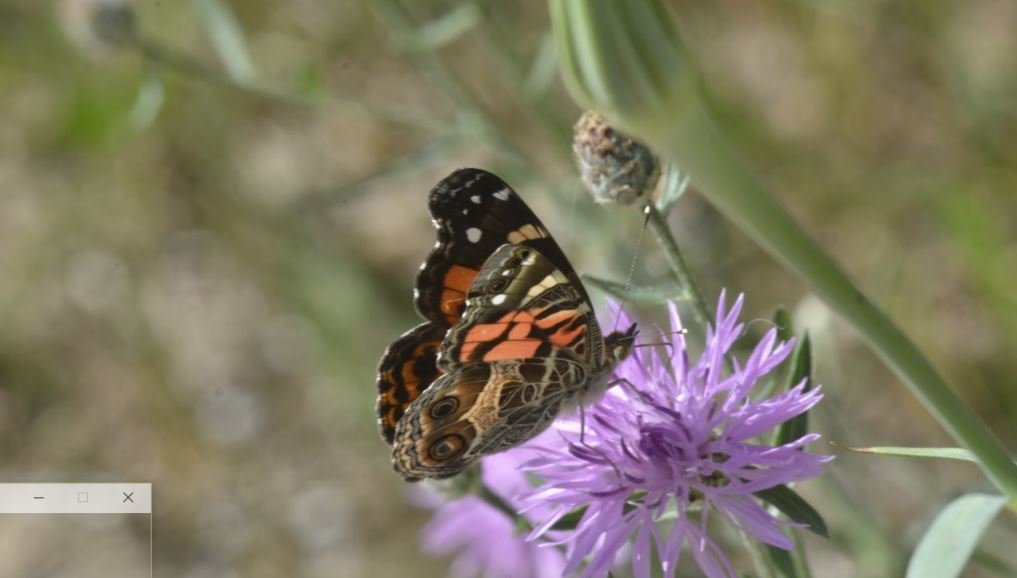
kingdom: Animalia
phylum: Arthropoda
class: Insecta
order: Lepidoptera
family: Nymphalidae
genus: Vanessa
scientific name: Vanessa virginiensis
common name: American Lady
